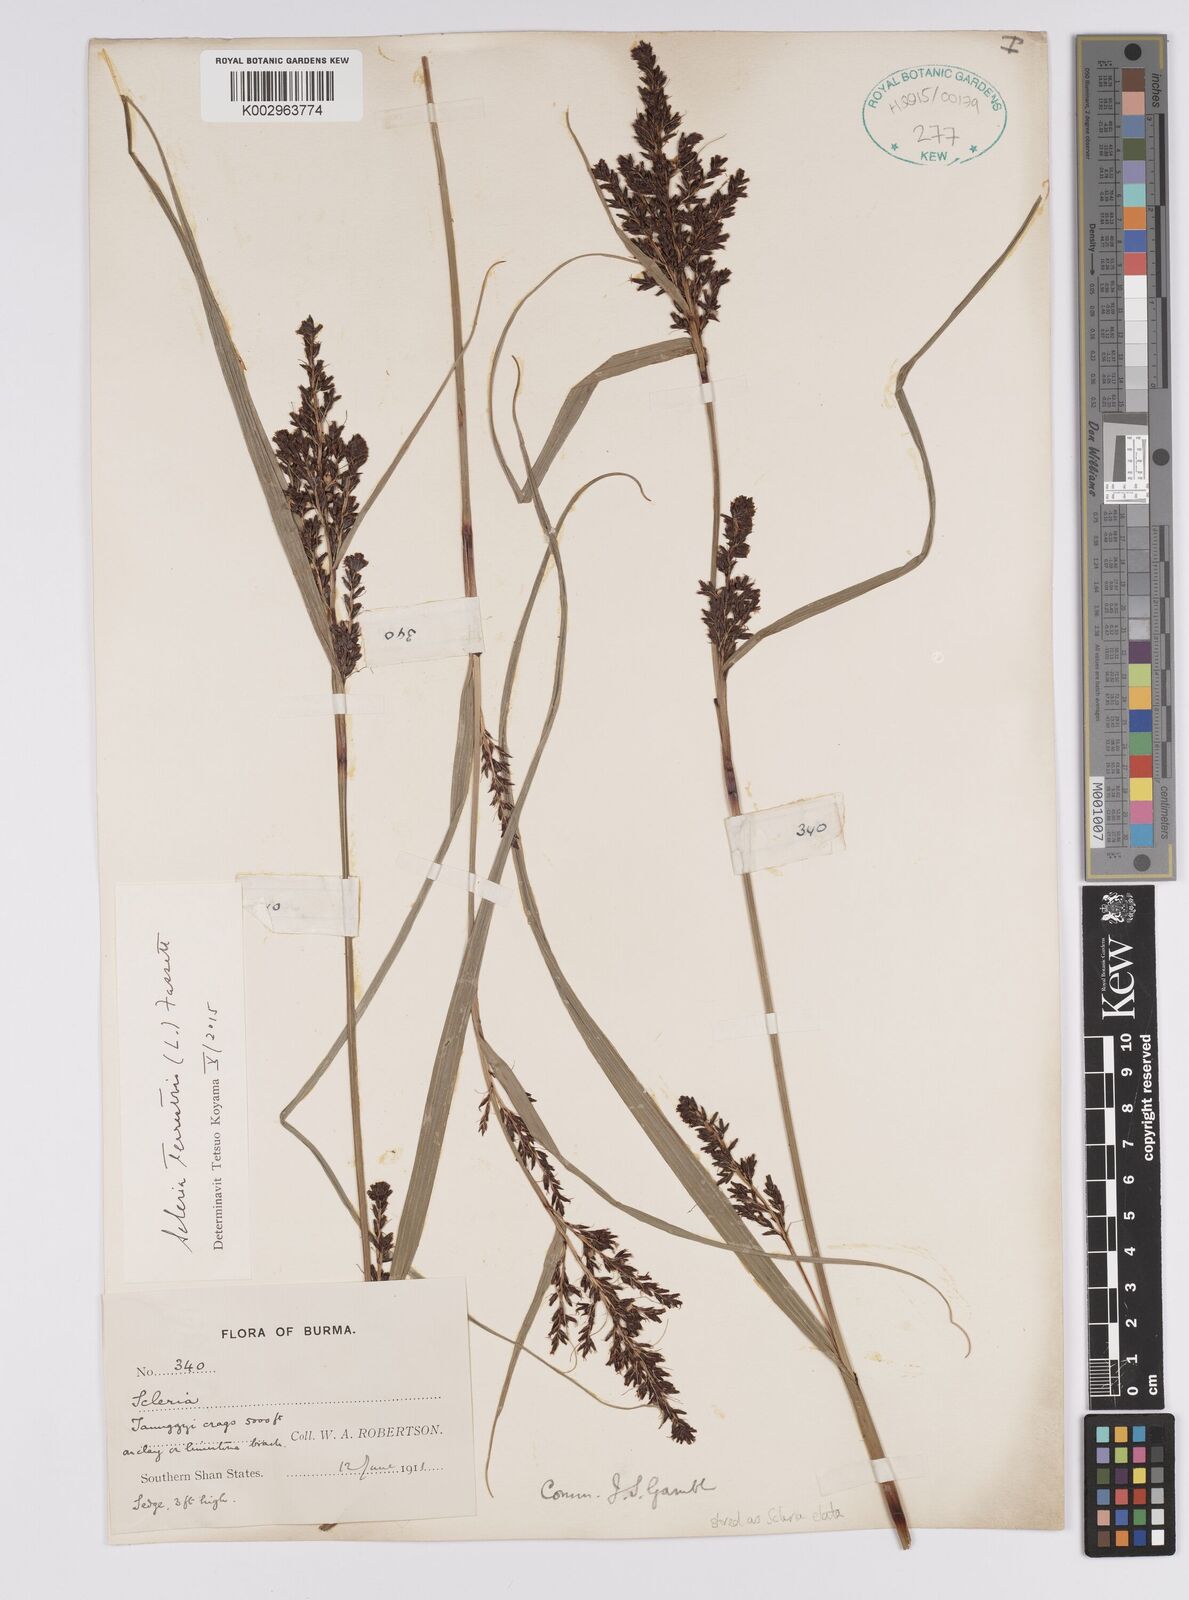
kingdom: Plantae
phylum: Tracheophyta
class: Liliopsida
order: Poales
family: Cyperaceae
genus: Scleria
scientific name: Scleria terrestris
